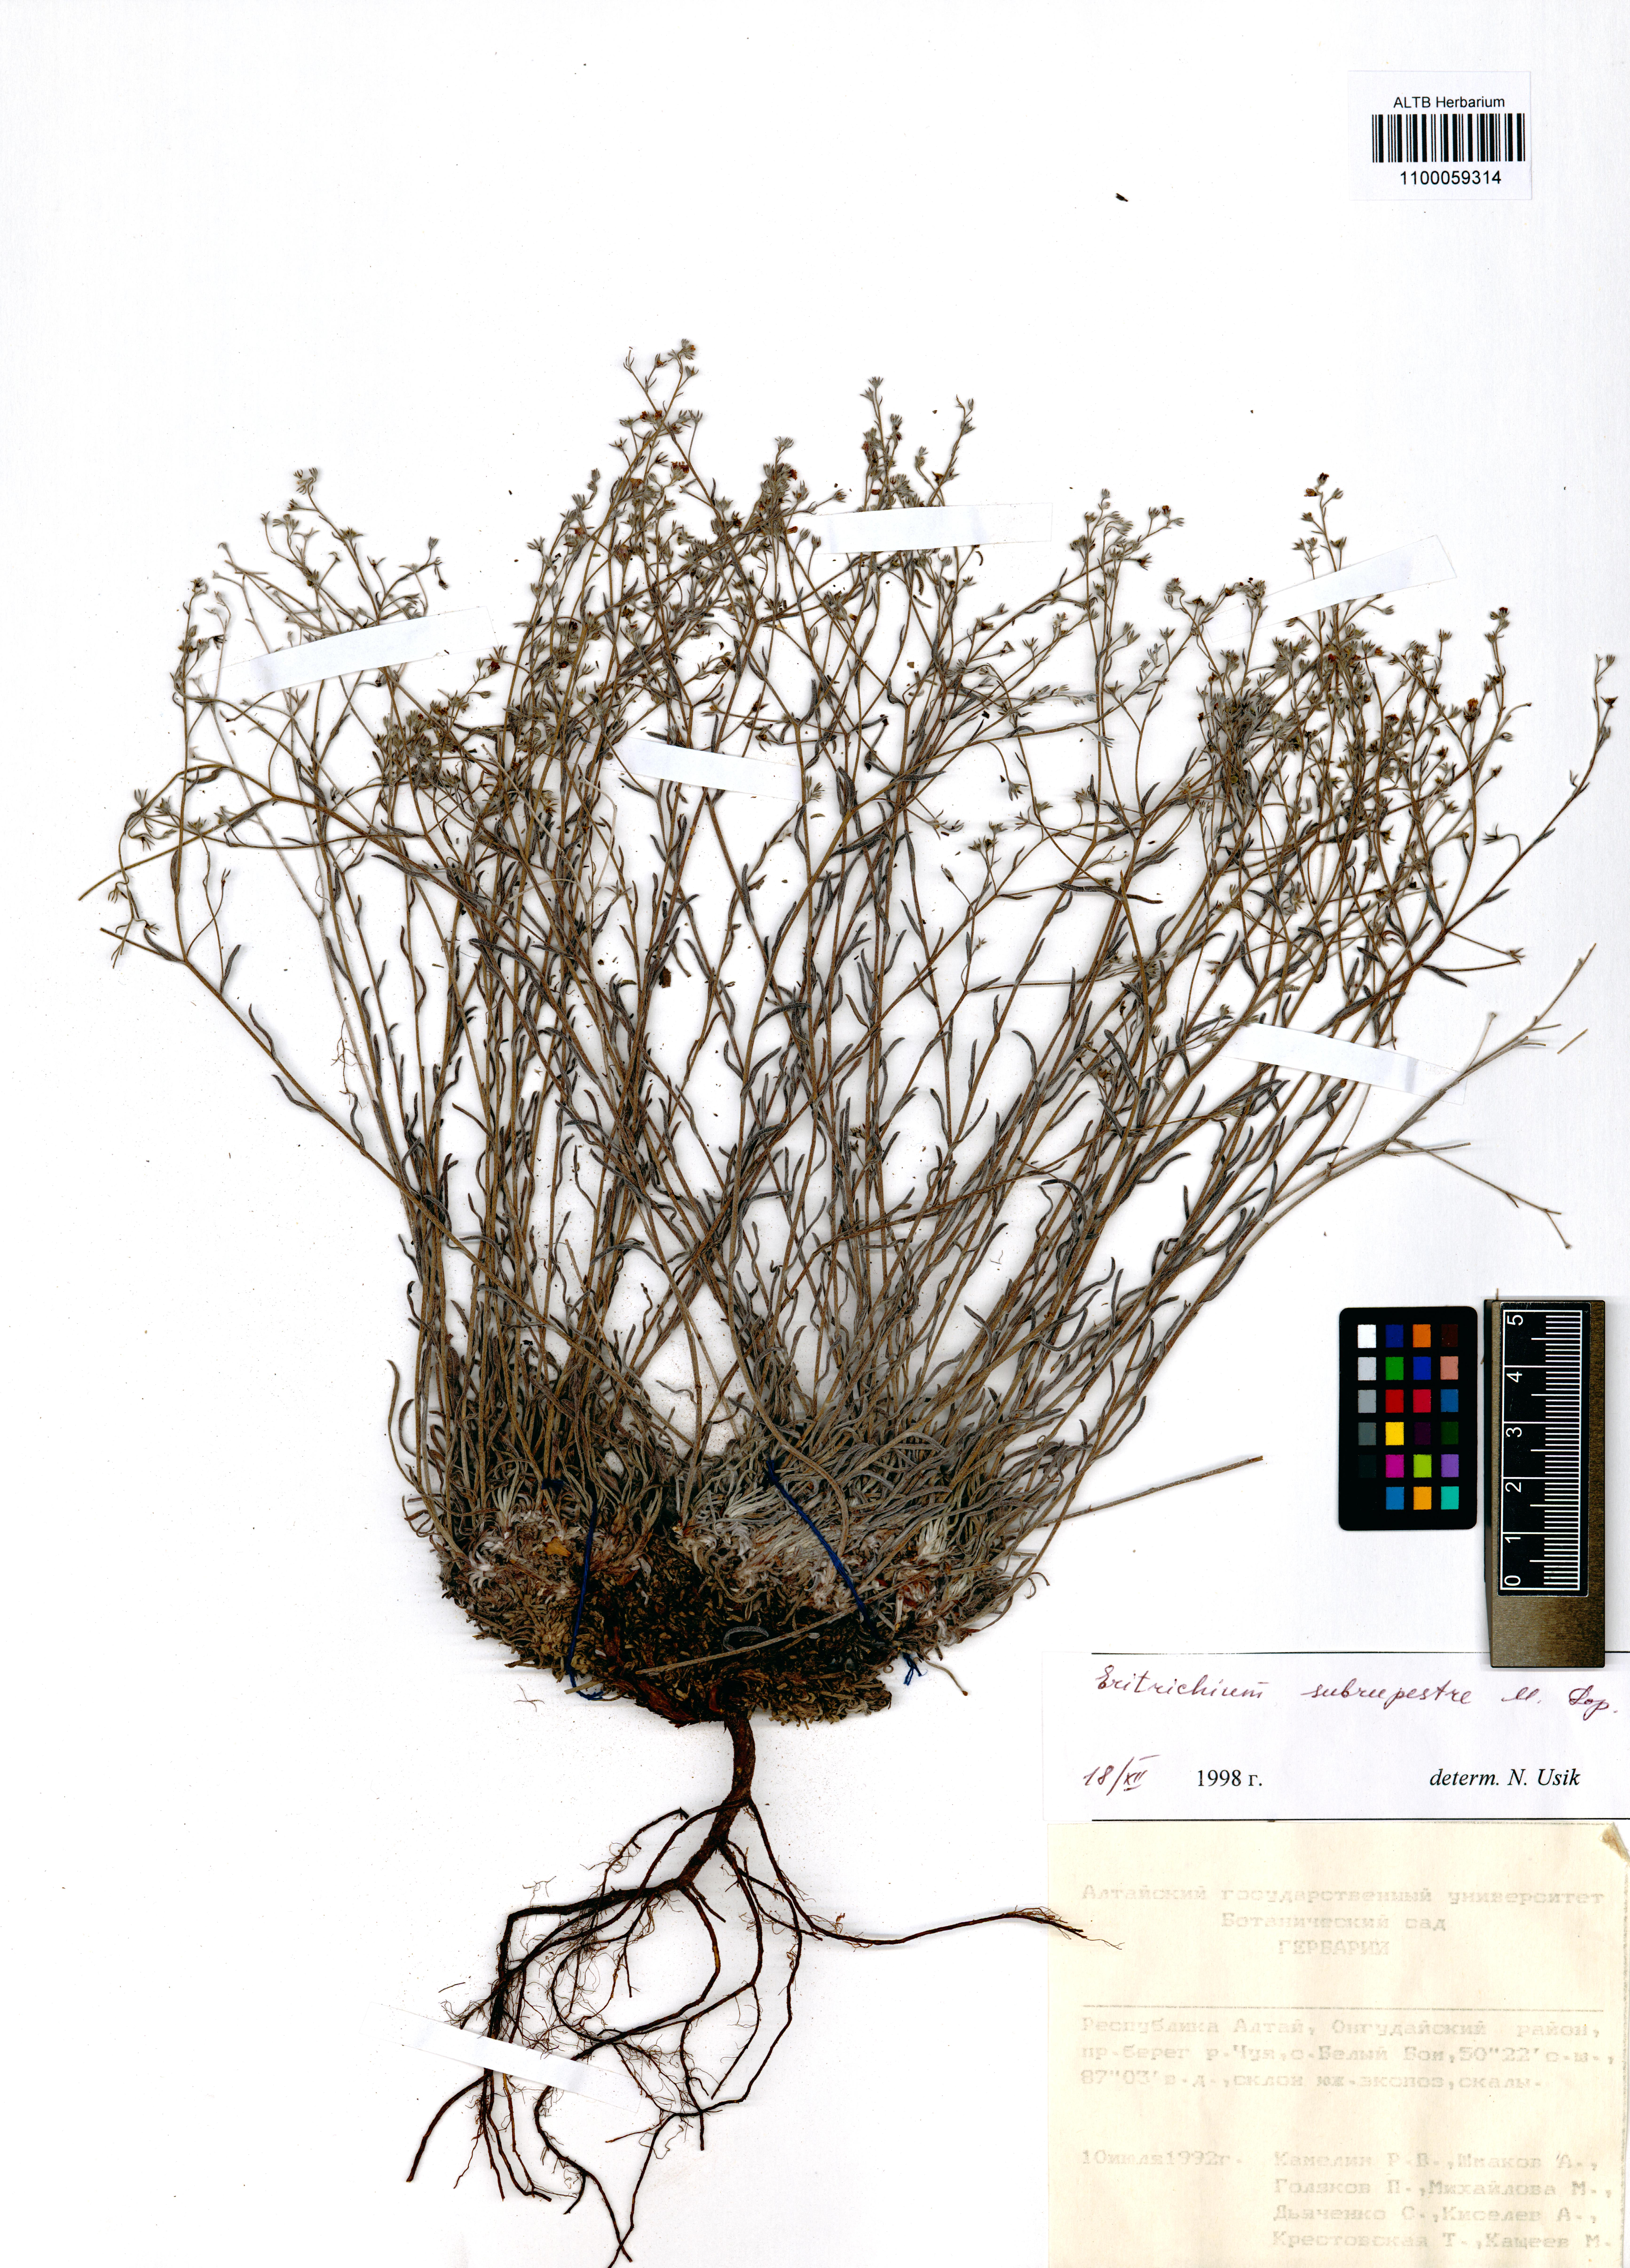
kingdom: Plantae
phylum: Tracheophyta
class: Magnoliopsida
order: Boraginales
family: Boraginaceae
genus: Eritrichium
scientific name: Eritrichium pauciflorum
